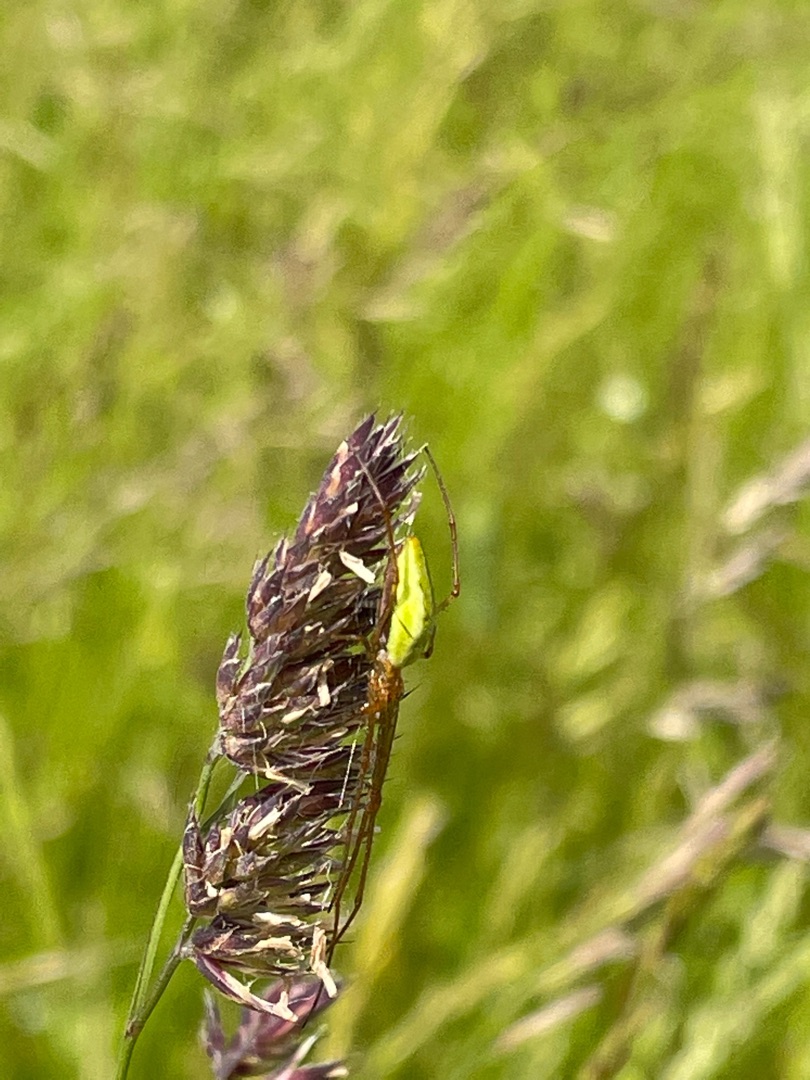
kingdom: Animalia
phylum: Arthropoda
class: Arachnida
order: Araneae
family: Tetragnathidae
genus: Tetragnatha
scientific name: Tetragnatha extensa
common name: Engstavedderkop
